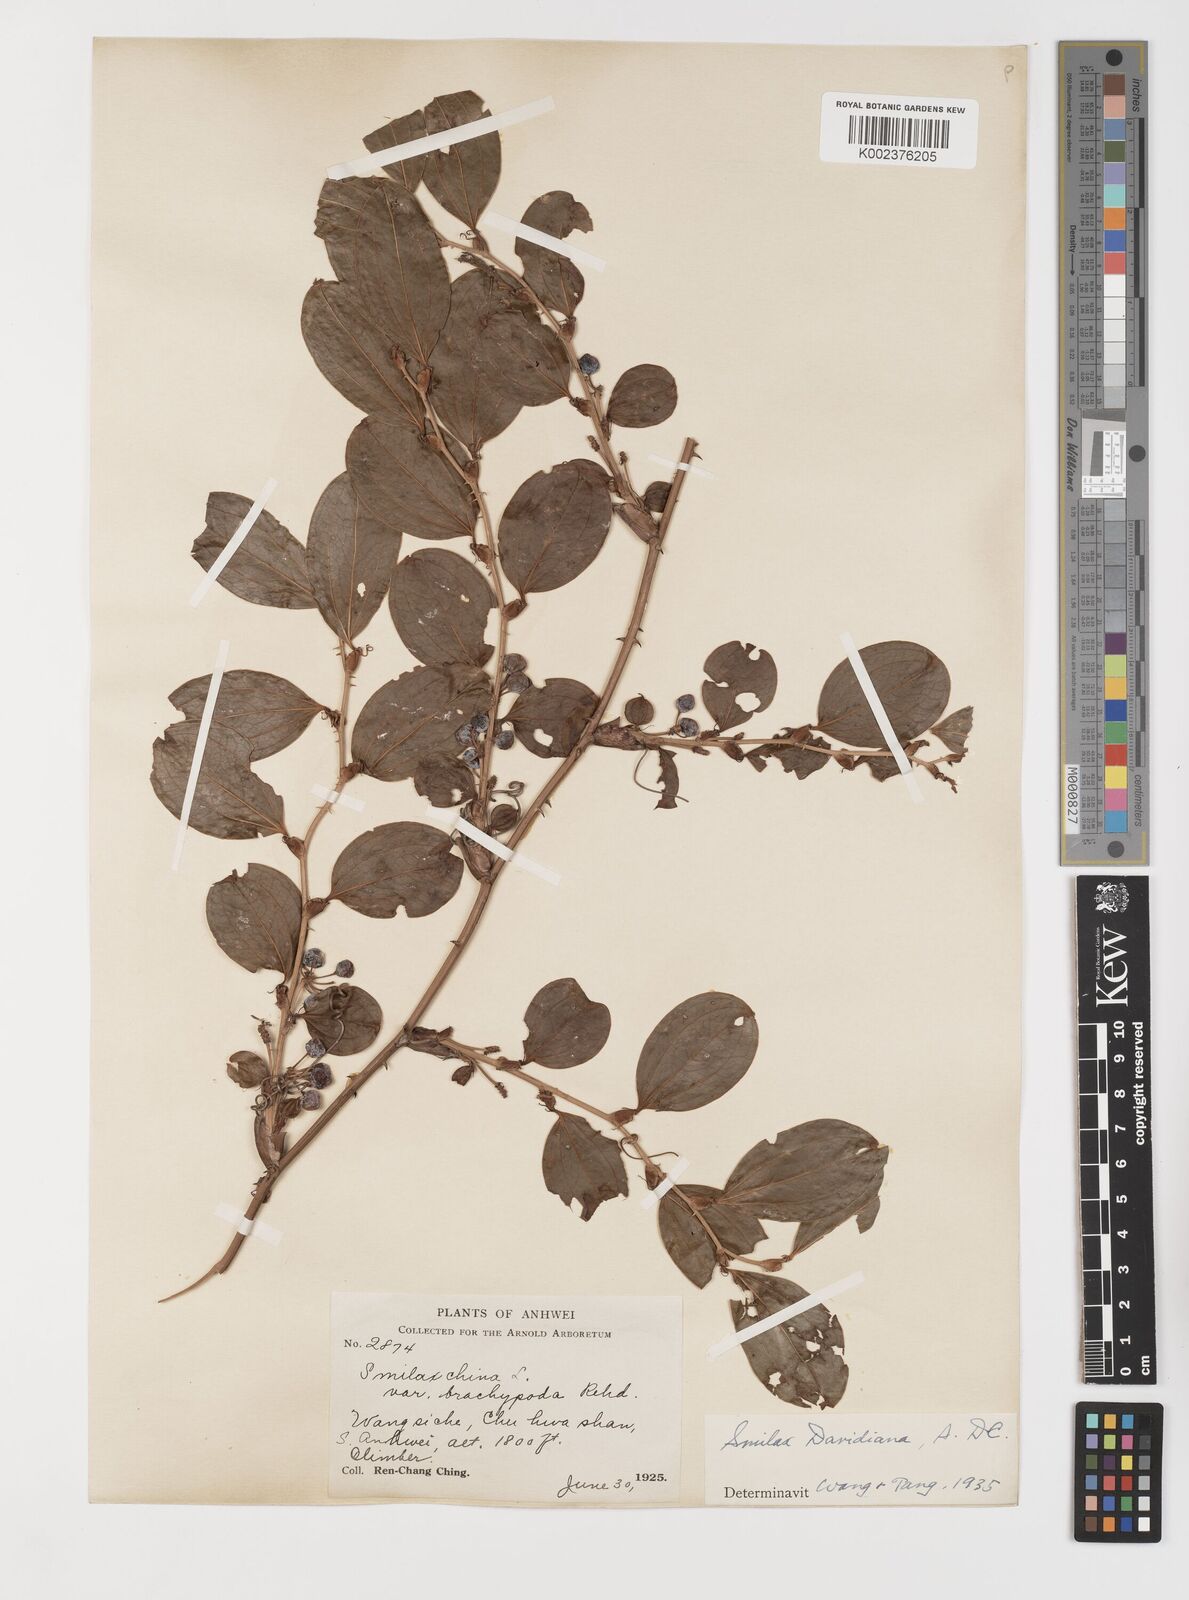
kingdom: Plantae
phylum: Tracheophyta
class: Liliopsida
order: Liliales
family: Smilacaceae
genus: Smilax
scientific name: Smilax davidiana
